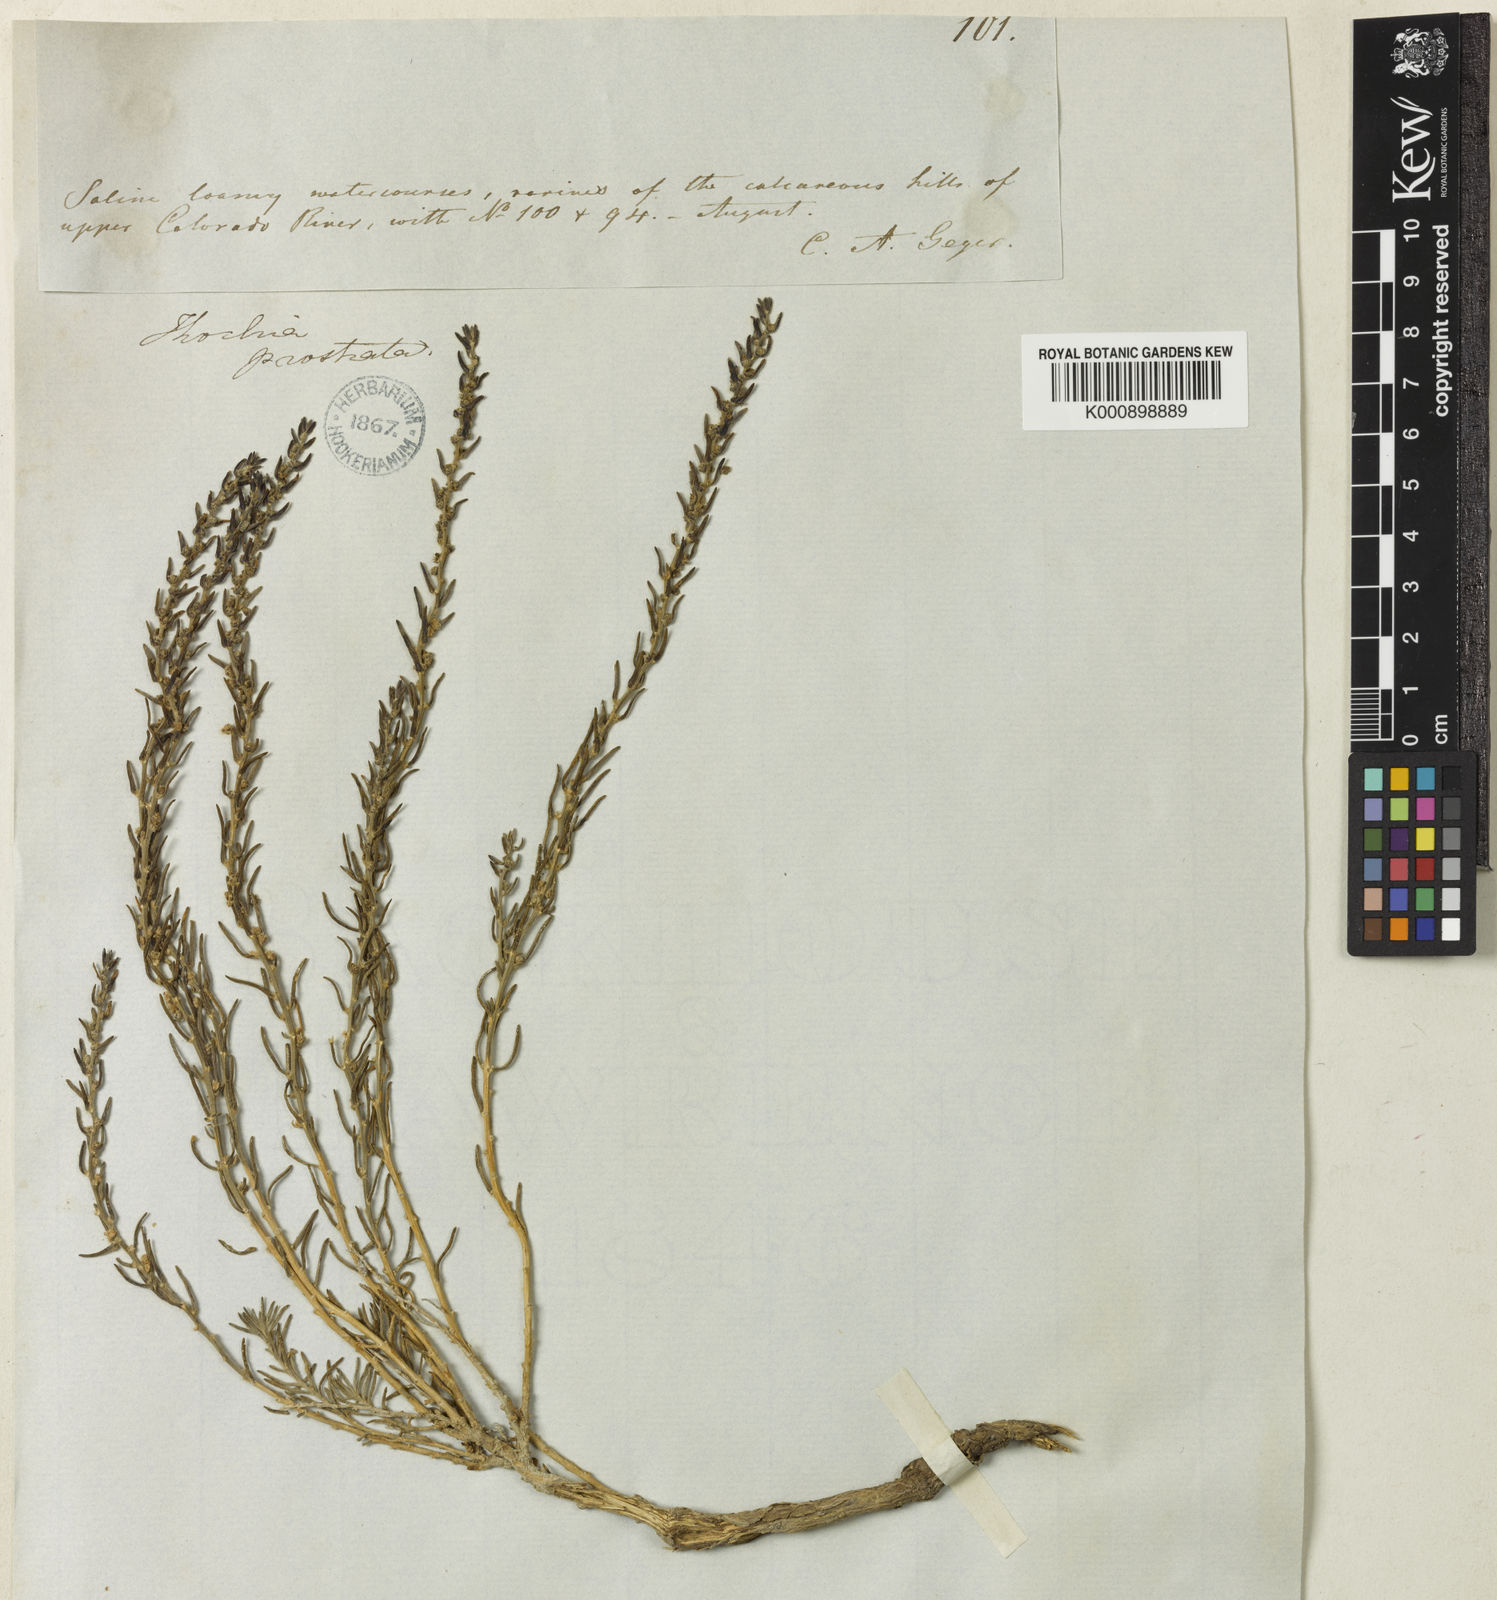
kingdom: Plantae
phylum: Tracheophyta
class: Magnoliopsida
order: Caryophyllales
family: Amaranthaceae
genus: Neokochia
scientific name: Neokochia americana
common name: Perennial summer-cypress
